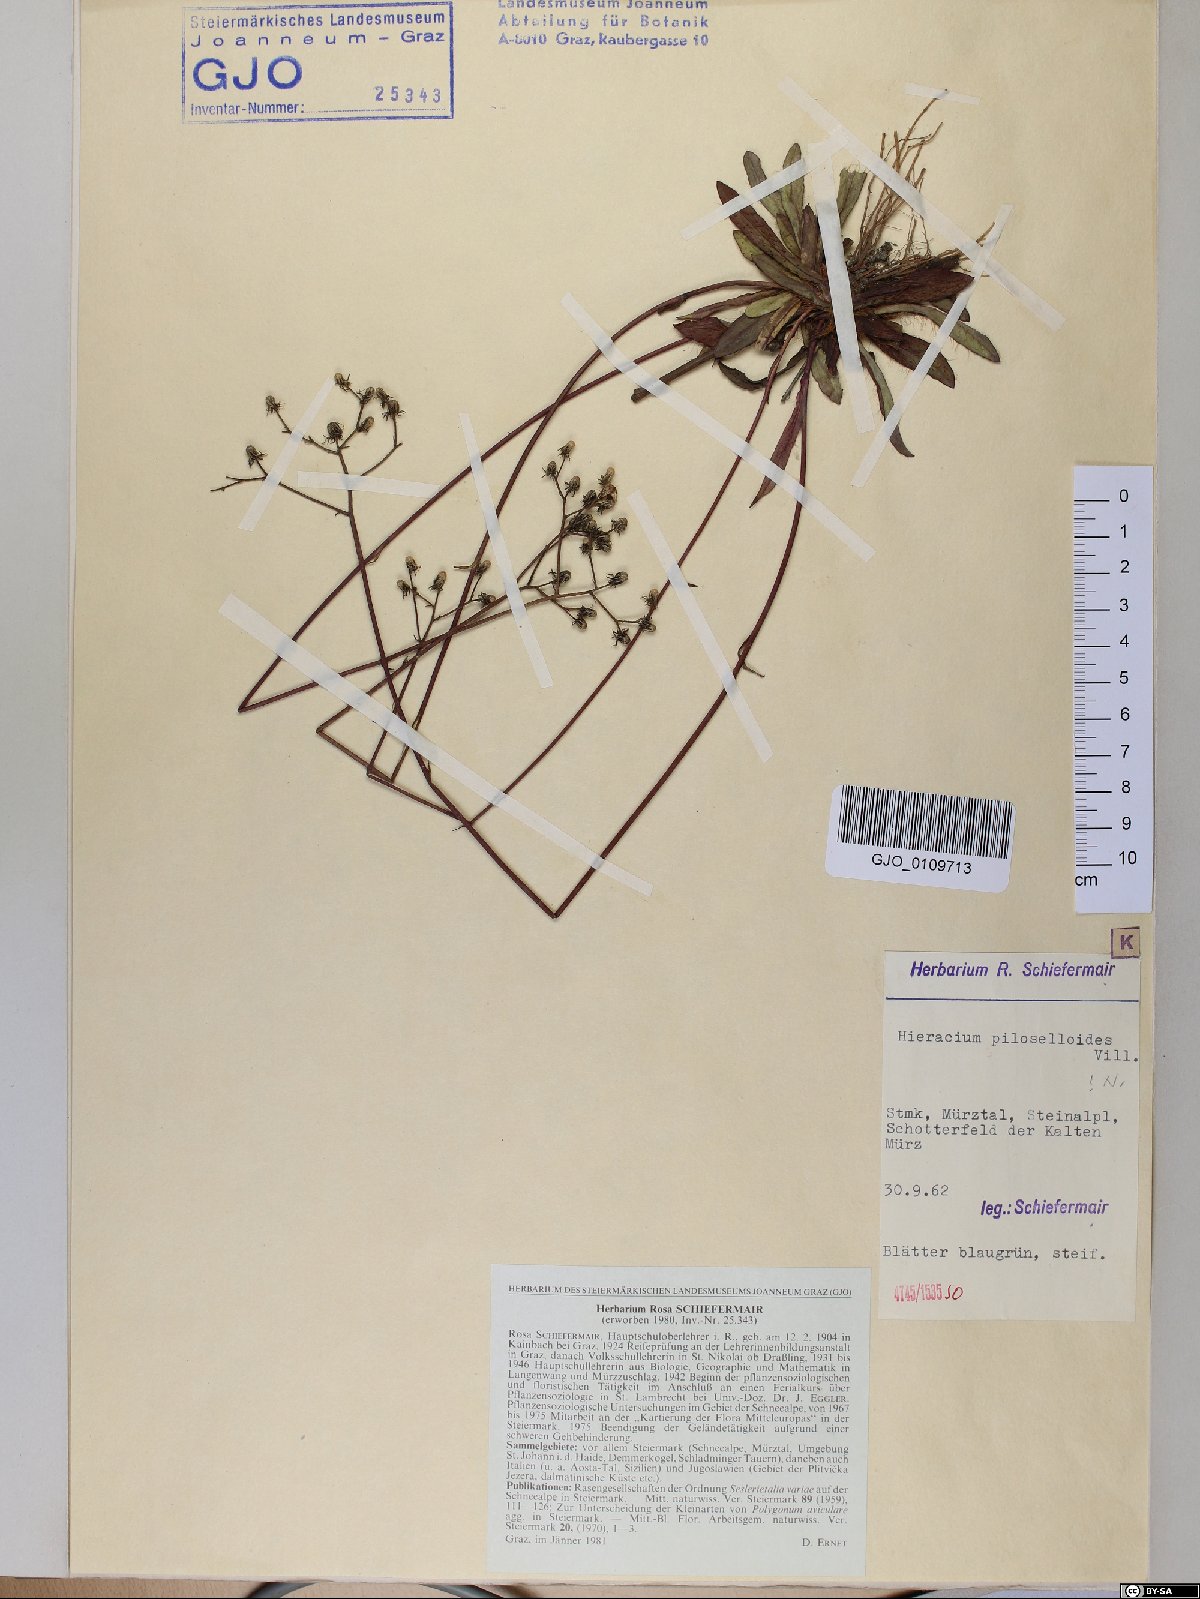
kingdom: Plantae
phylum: Tracheophyta
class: Magnoliopsida
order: Asterales
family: Asteraceae
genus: Pilosella
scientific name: Pilosella piloselloides
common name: Glaucous king-devil
